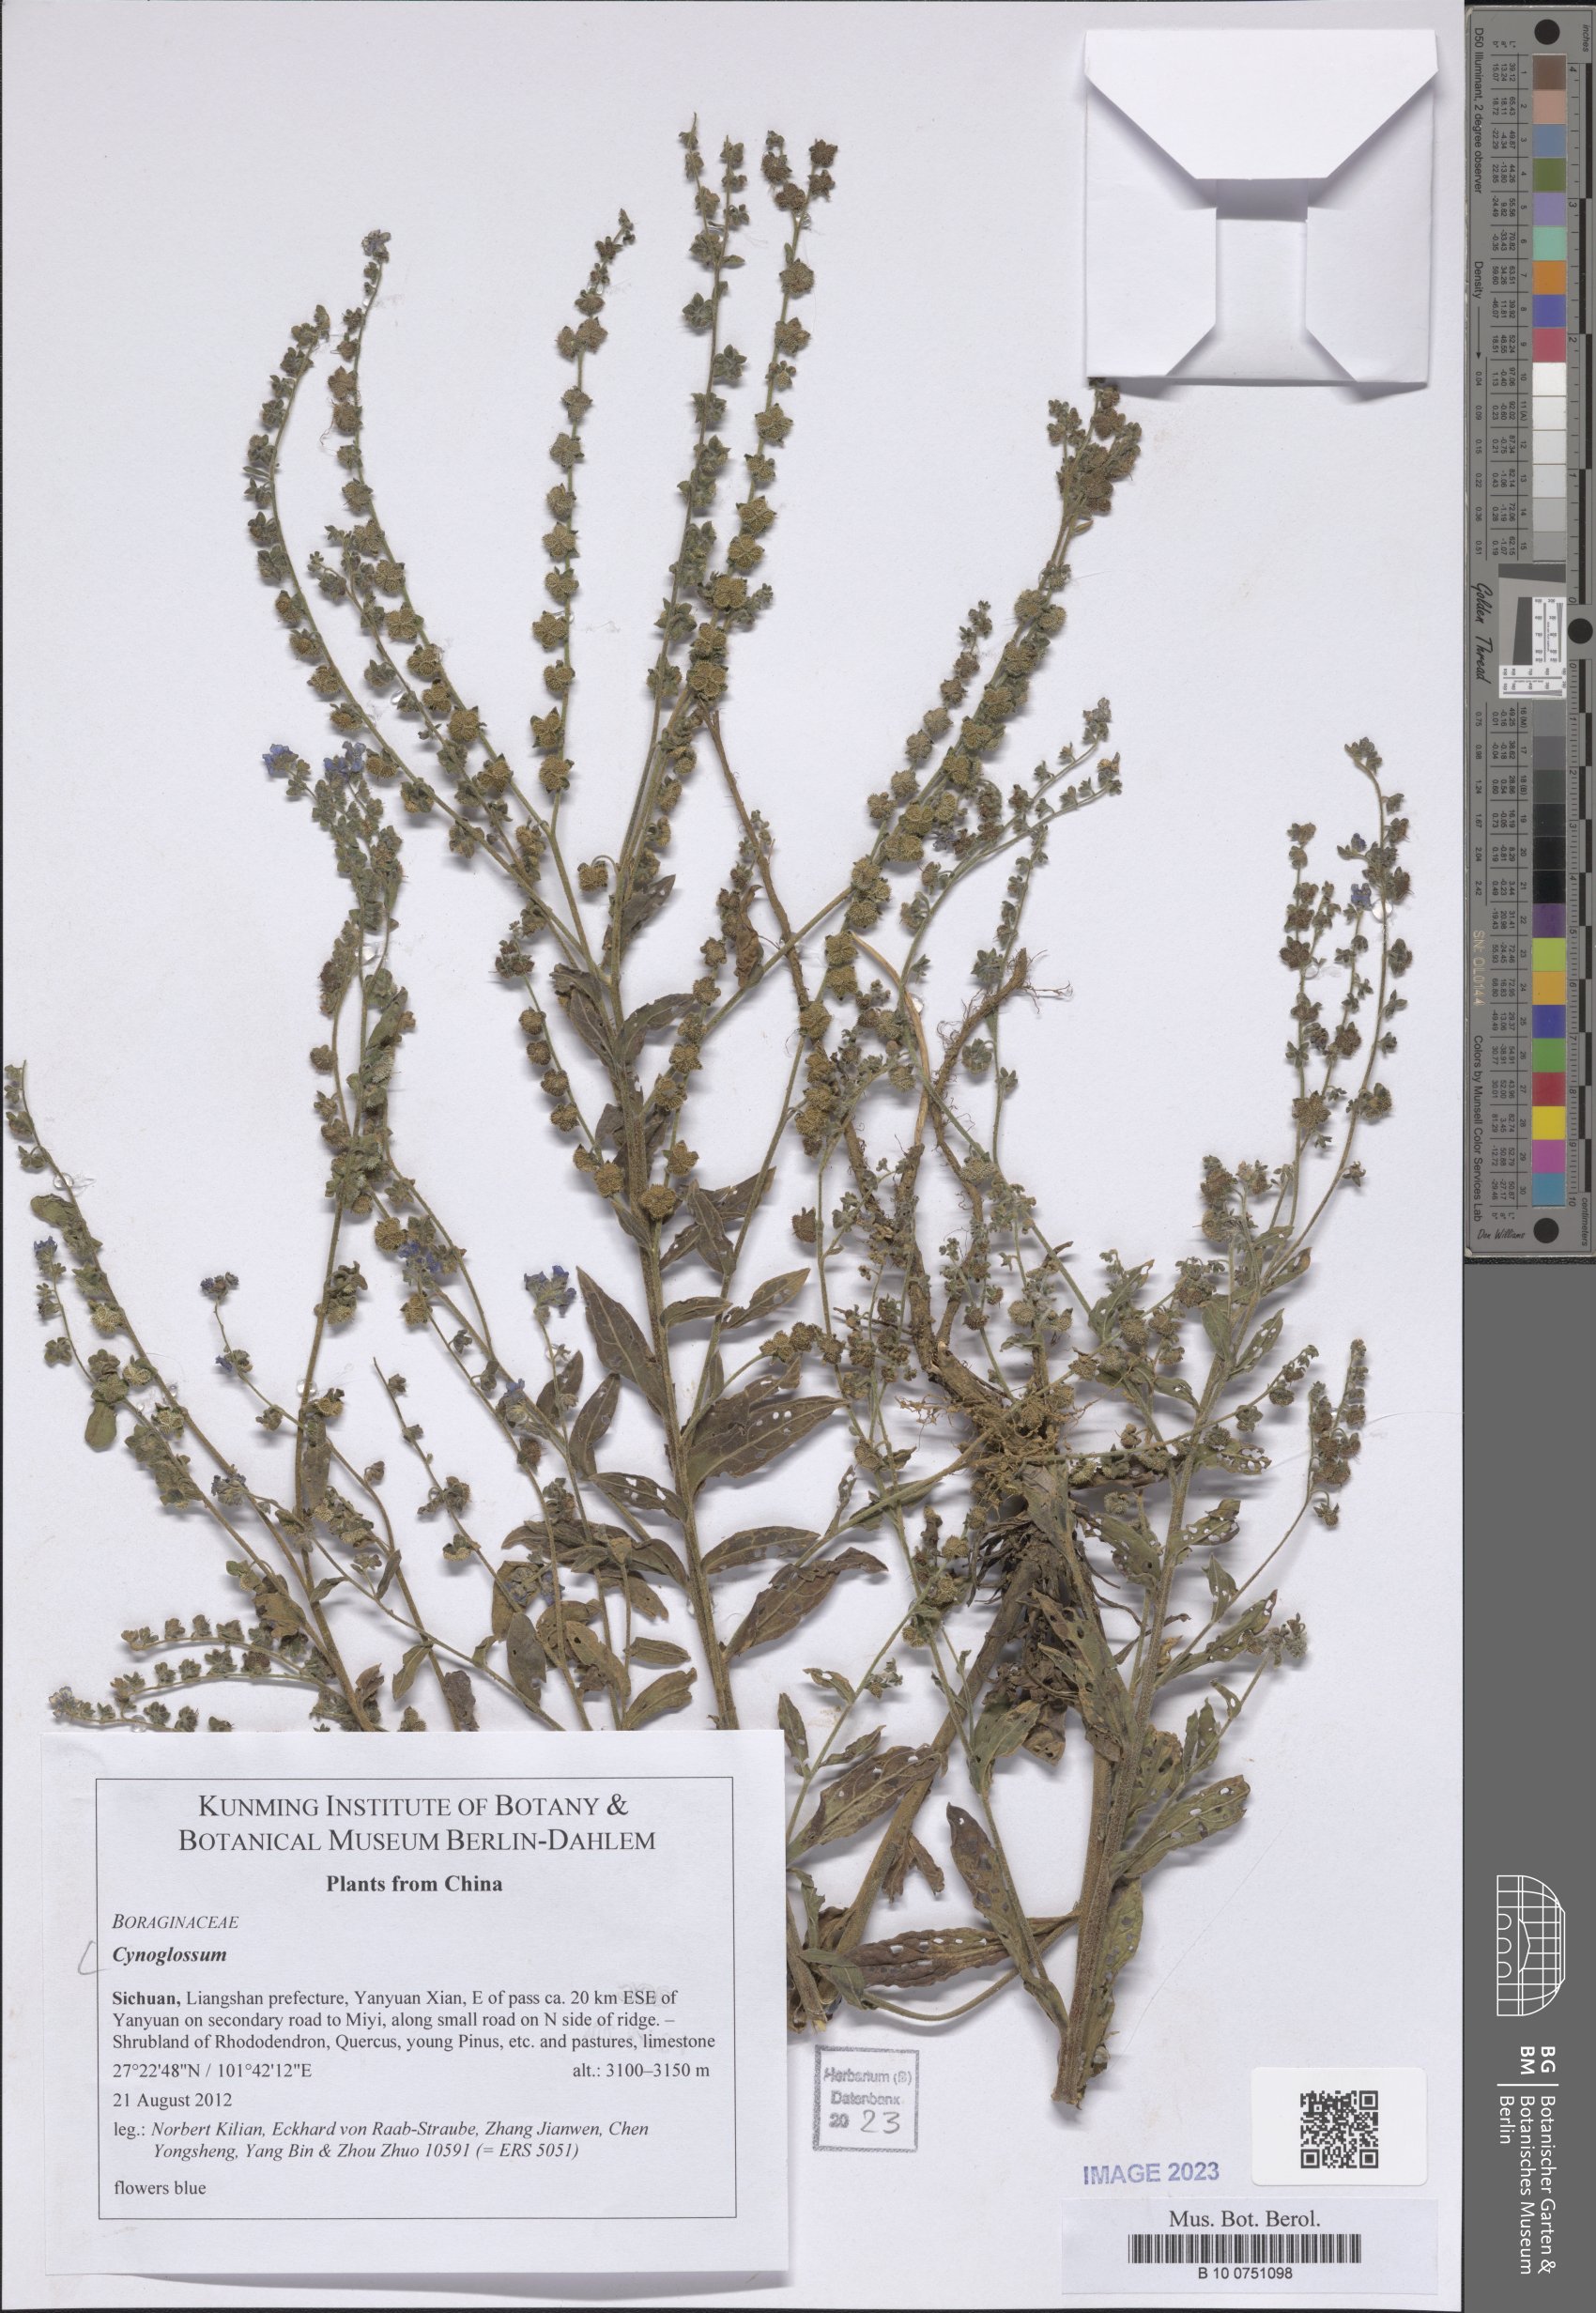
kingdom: Plantae
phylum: Tracheophyta
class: Magnoliopsida
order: Boraginales
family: Boraginaceae
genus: Cynoglossum
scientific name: Cynoglossum
